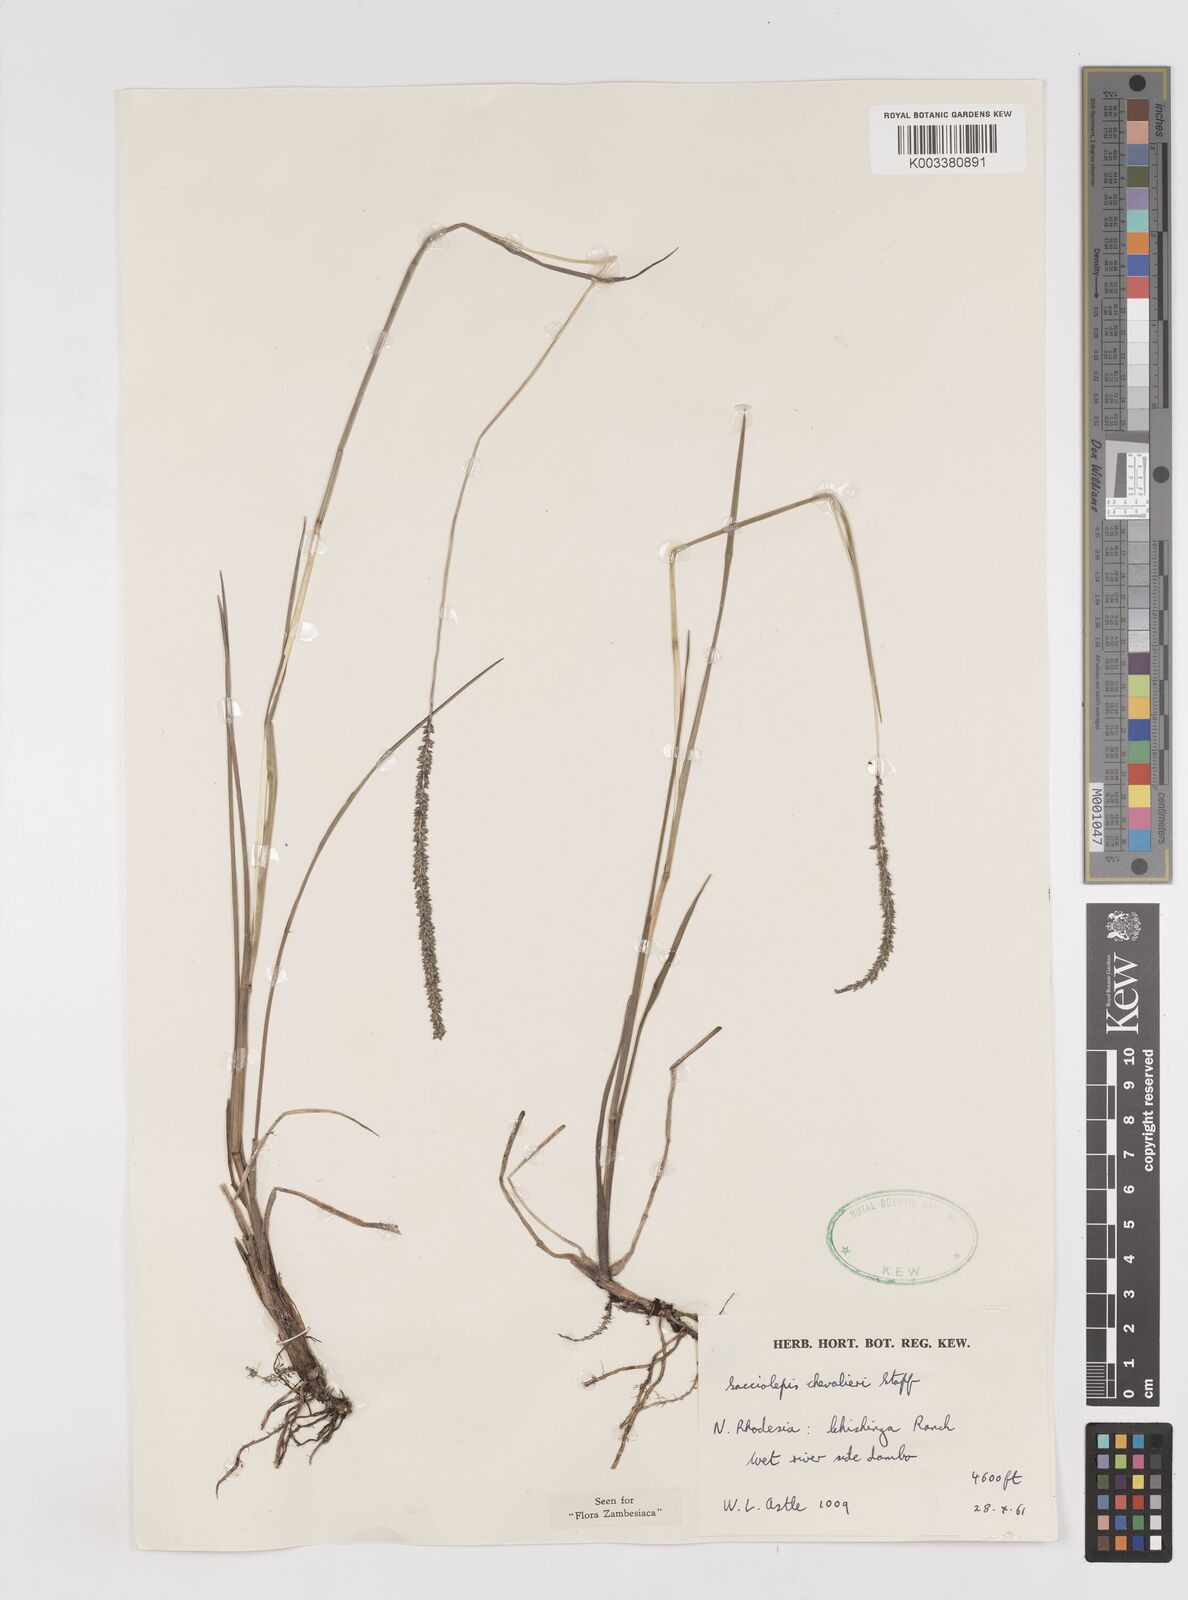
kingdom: Plantae
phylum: Tracheophyta
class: Liliopsida
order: Poales
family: Poaceae
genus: Sacciolepis
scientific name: Sacciolepis chevalieri
